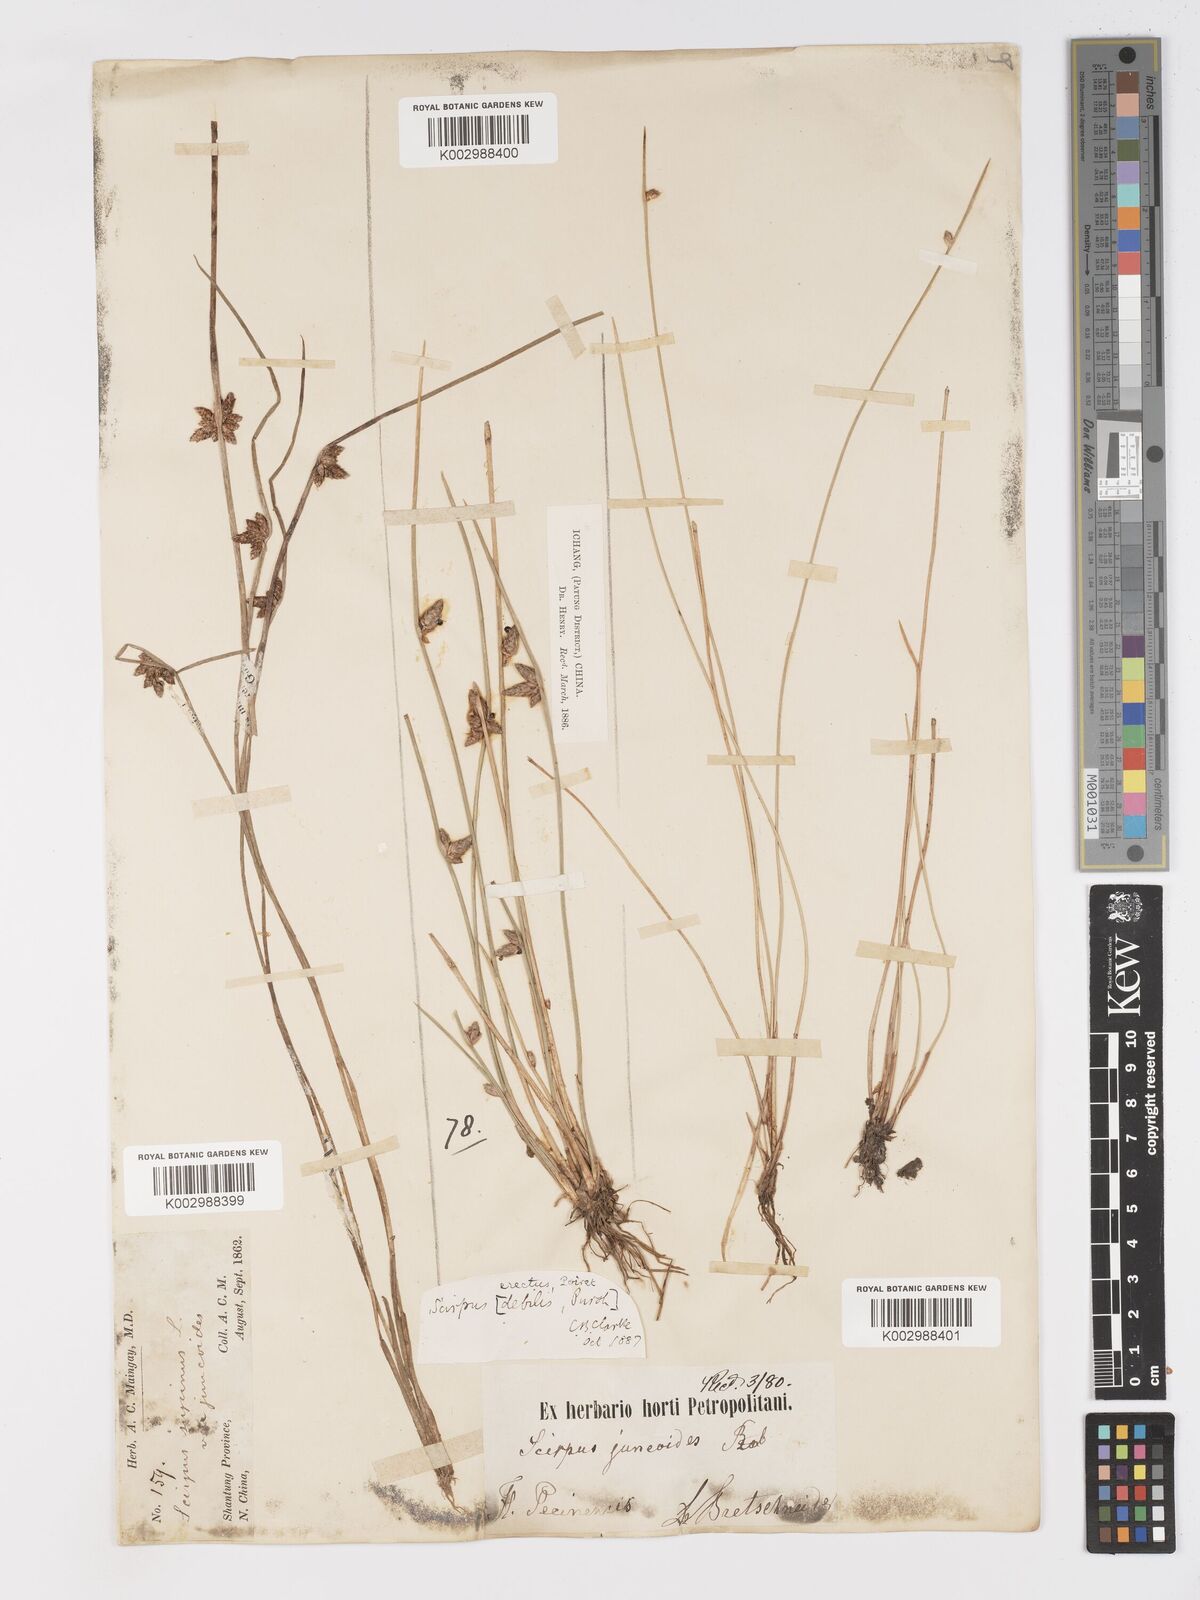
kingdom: Plantae
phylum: Tracheophyta
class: Liliopsida
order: Poales
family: Cyperaceae
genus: Schoenoplectiella
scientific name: Schoenoplectiella erecta
